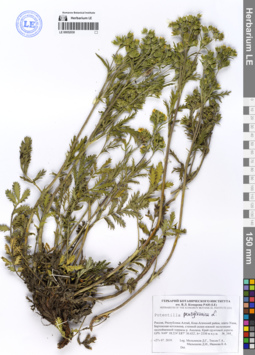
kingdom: Plantae
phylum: Tracheophyta
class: Magnoliopsida
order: Rosales
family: Rosaceae
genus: Potentilla
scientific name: Potentilla pensylvanica
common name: Pennsylvania cinquefoil
